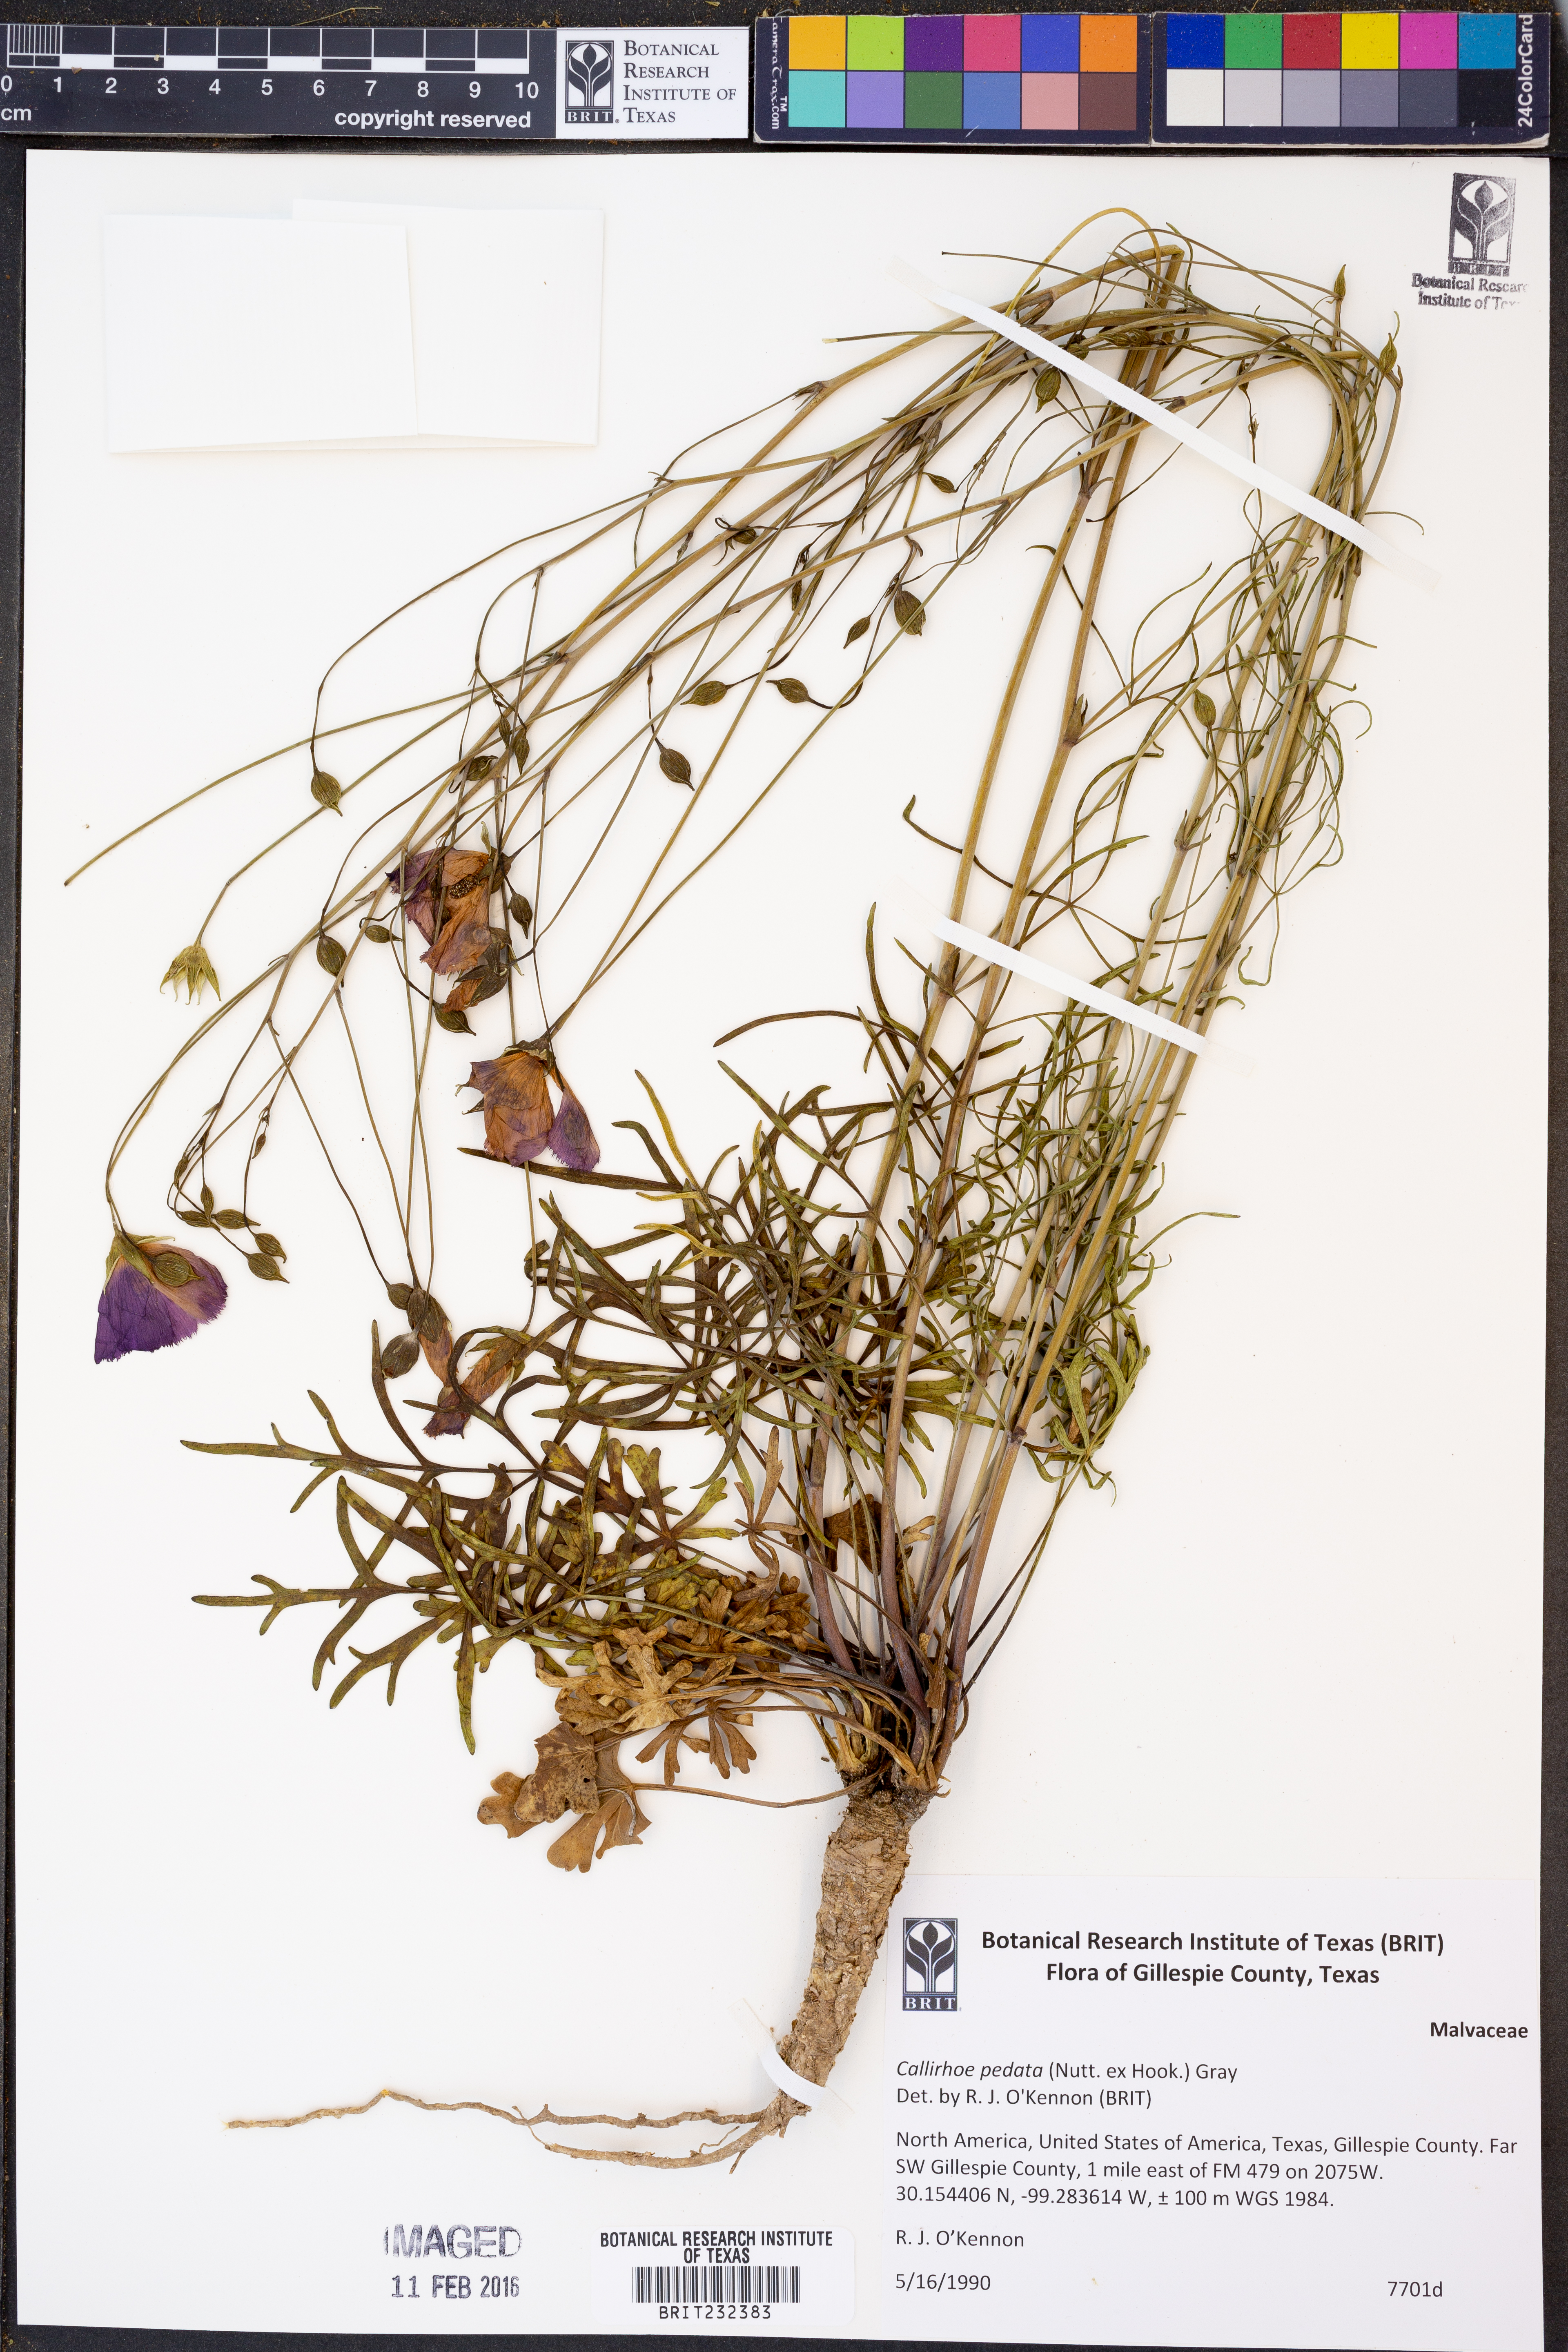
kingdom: Plantae
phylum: Tracheophyta
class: Magnoliopsida
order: Malvales
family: Malvaceae
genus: Callirhoe
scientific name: Callirhoe pedata
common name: Finger poppy-mallow
